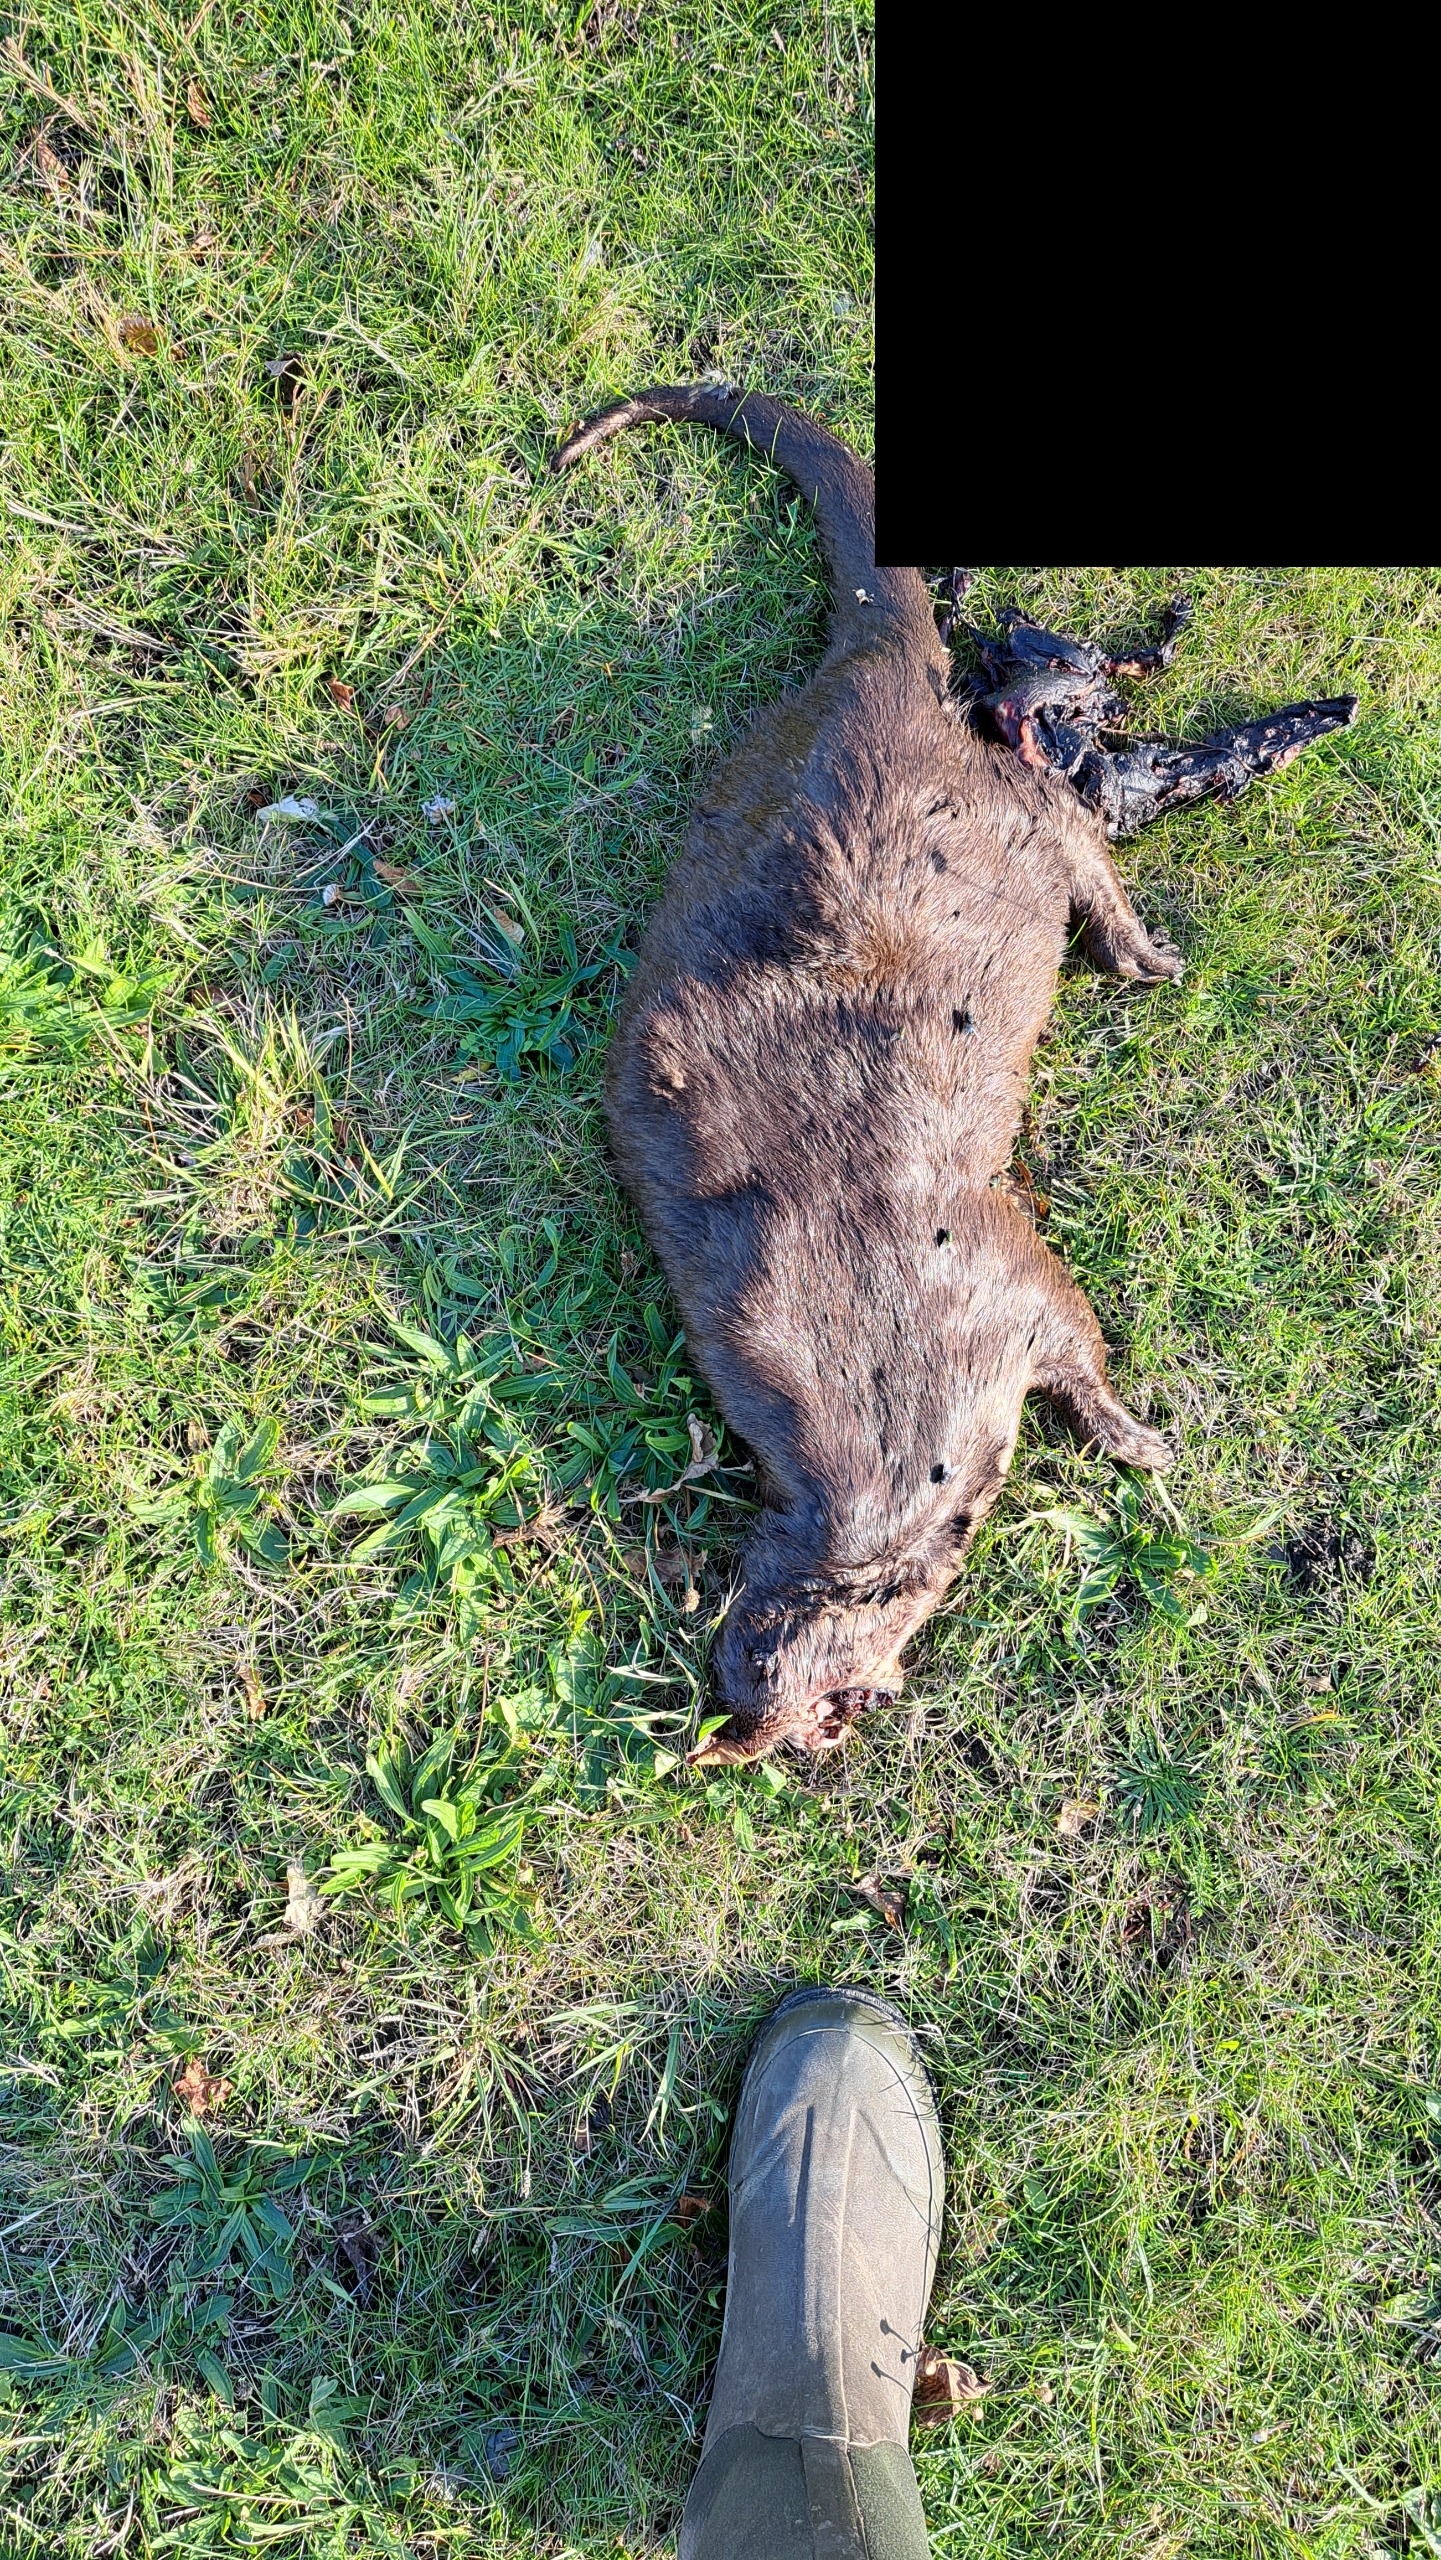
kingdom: Animalia
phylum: Chordata
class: Mammalia
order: Carnivora
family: Mustelidae
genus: Lutra
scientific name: Lutra lutra
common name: Odder
